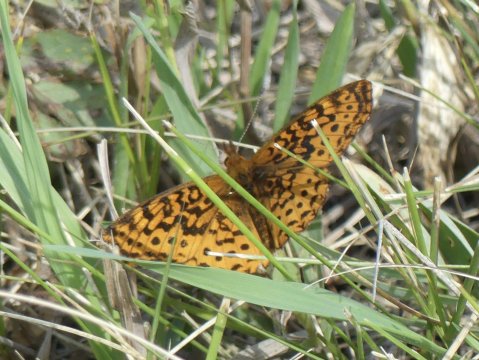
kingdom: Animalia
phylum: Arthropoda
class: Insecta
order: Lepidoptera
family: Nymphalidae
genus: Clossiana
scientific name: Clossiana toddi
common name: Meadow Fritillary
